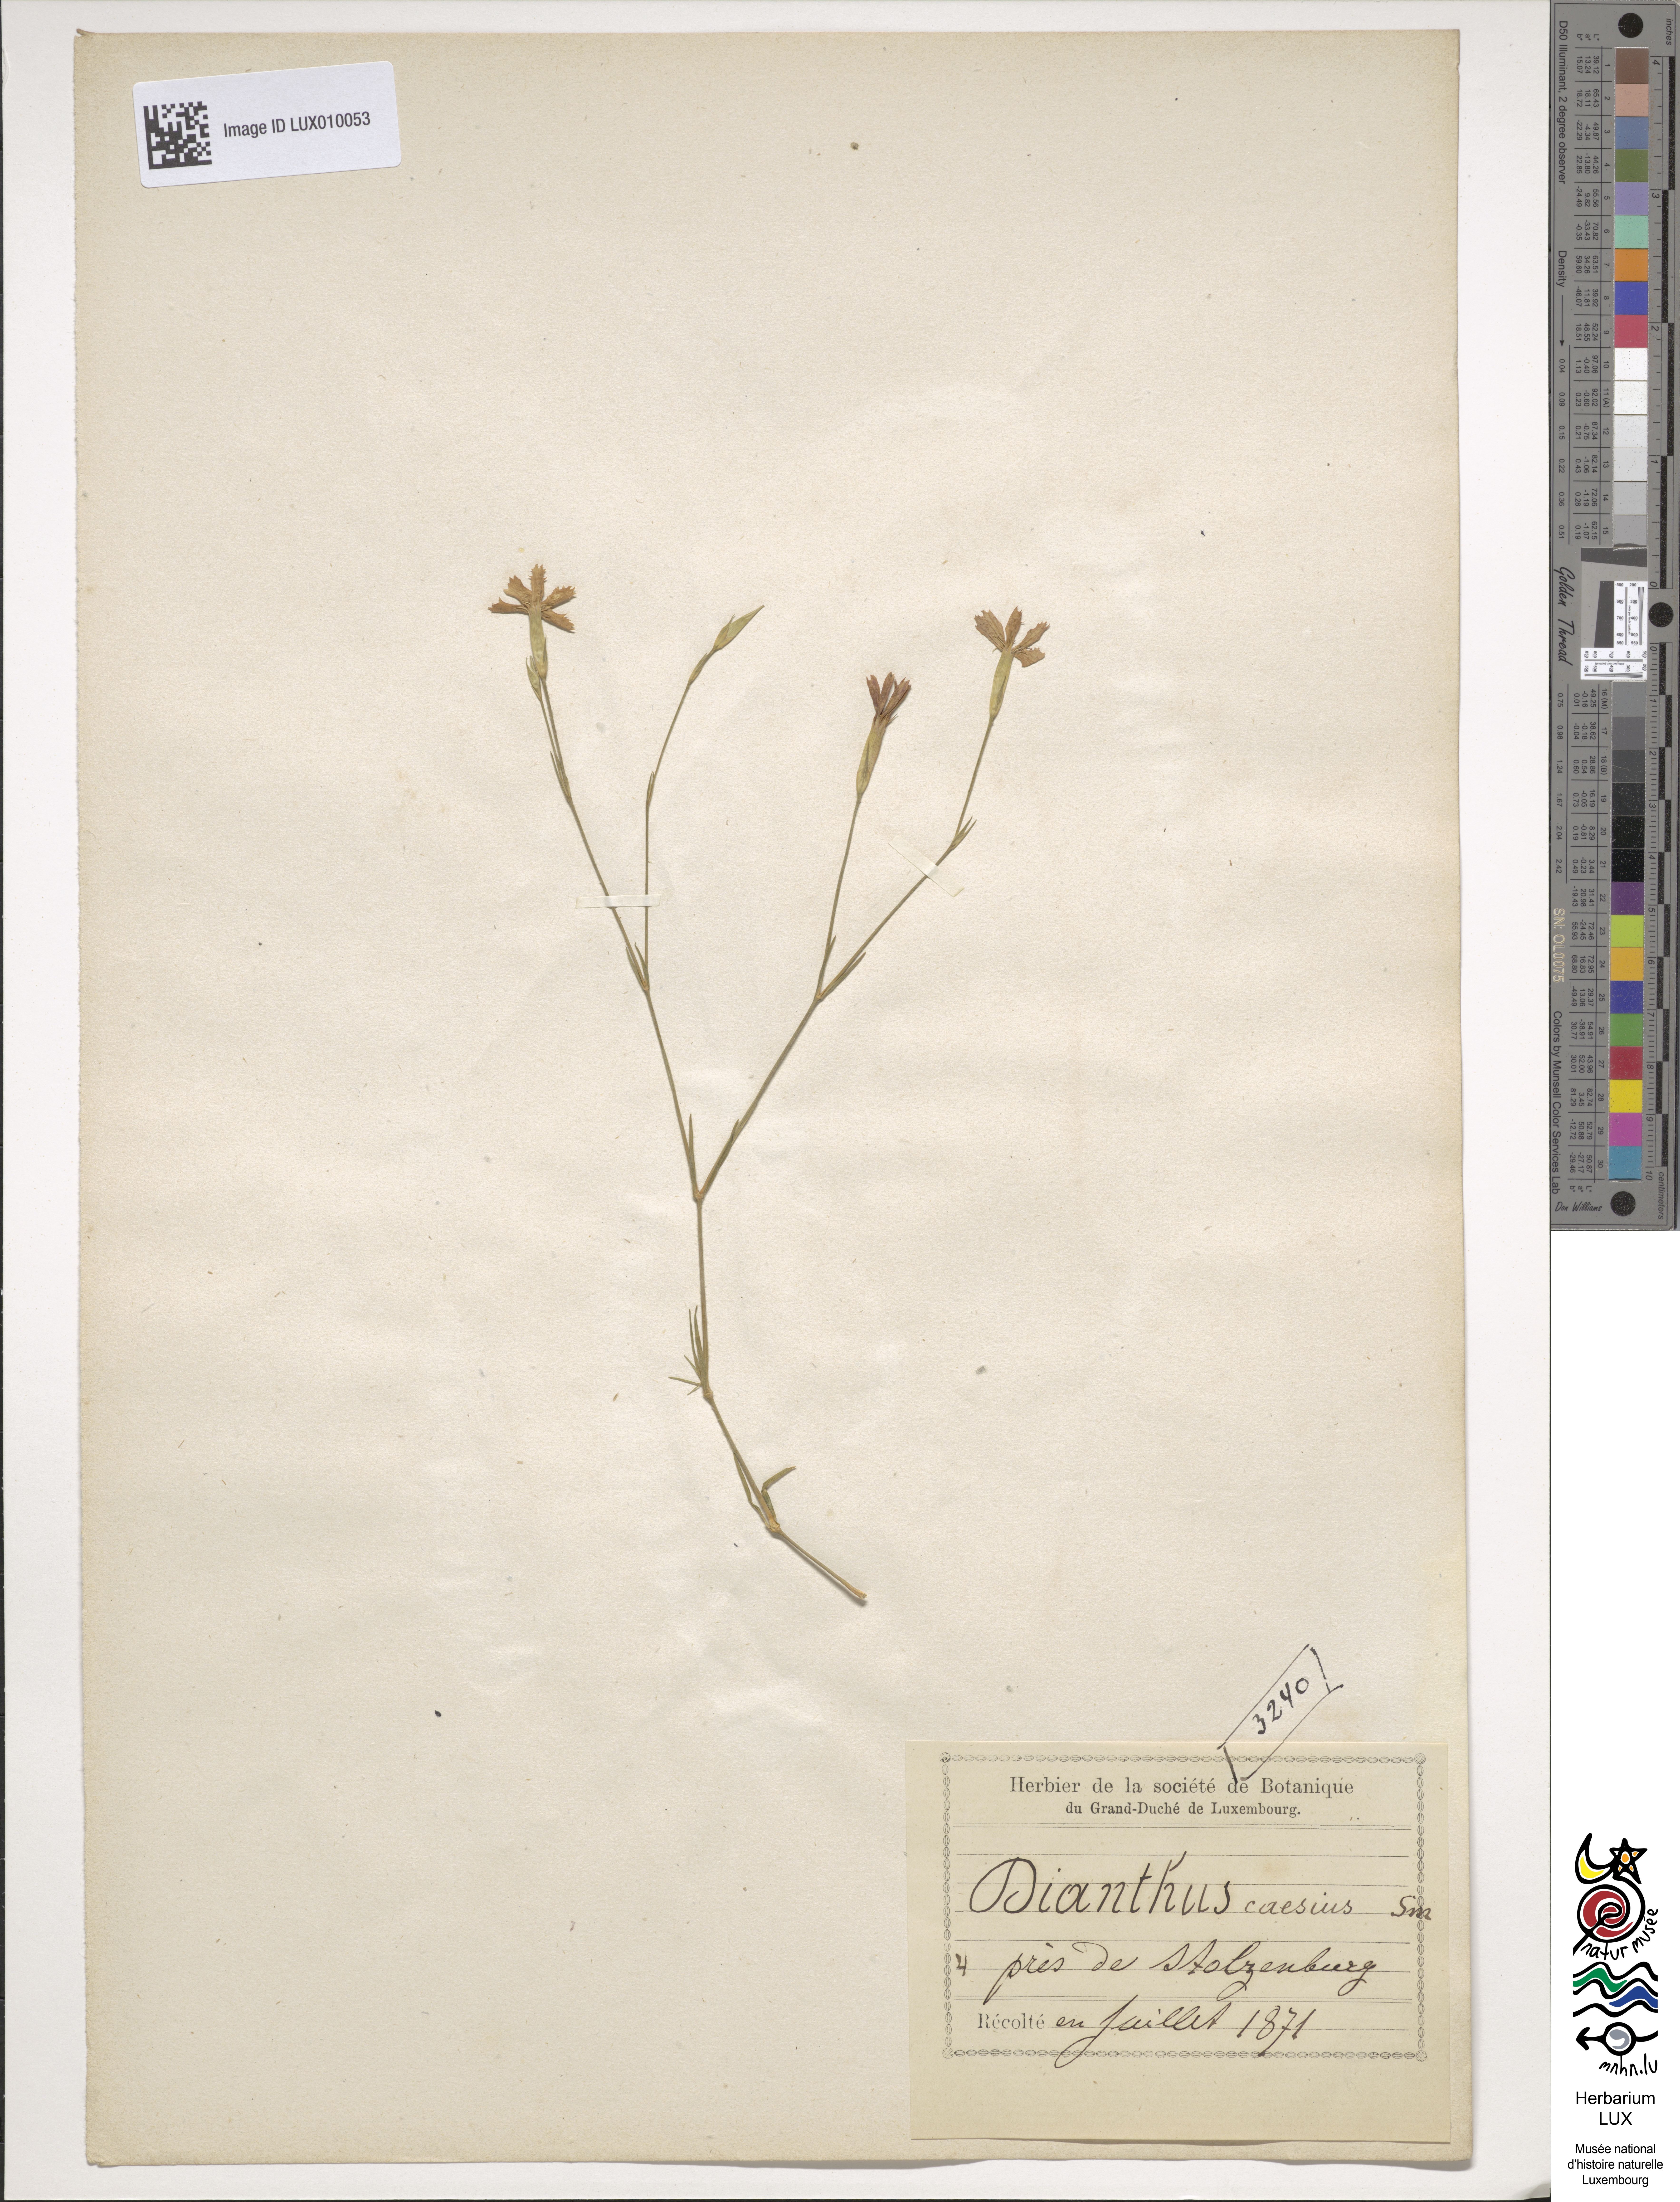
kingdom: Plantae
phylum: Tracheophyta
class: Magnoliopsida
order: Caryophyllales
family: Caryophyllaceae
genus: Dianthus
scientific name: Dianthus gratianopolitanus
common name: Cheddar pink
